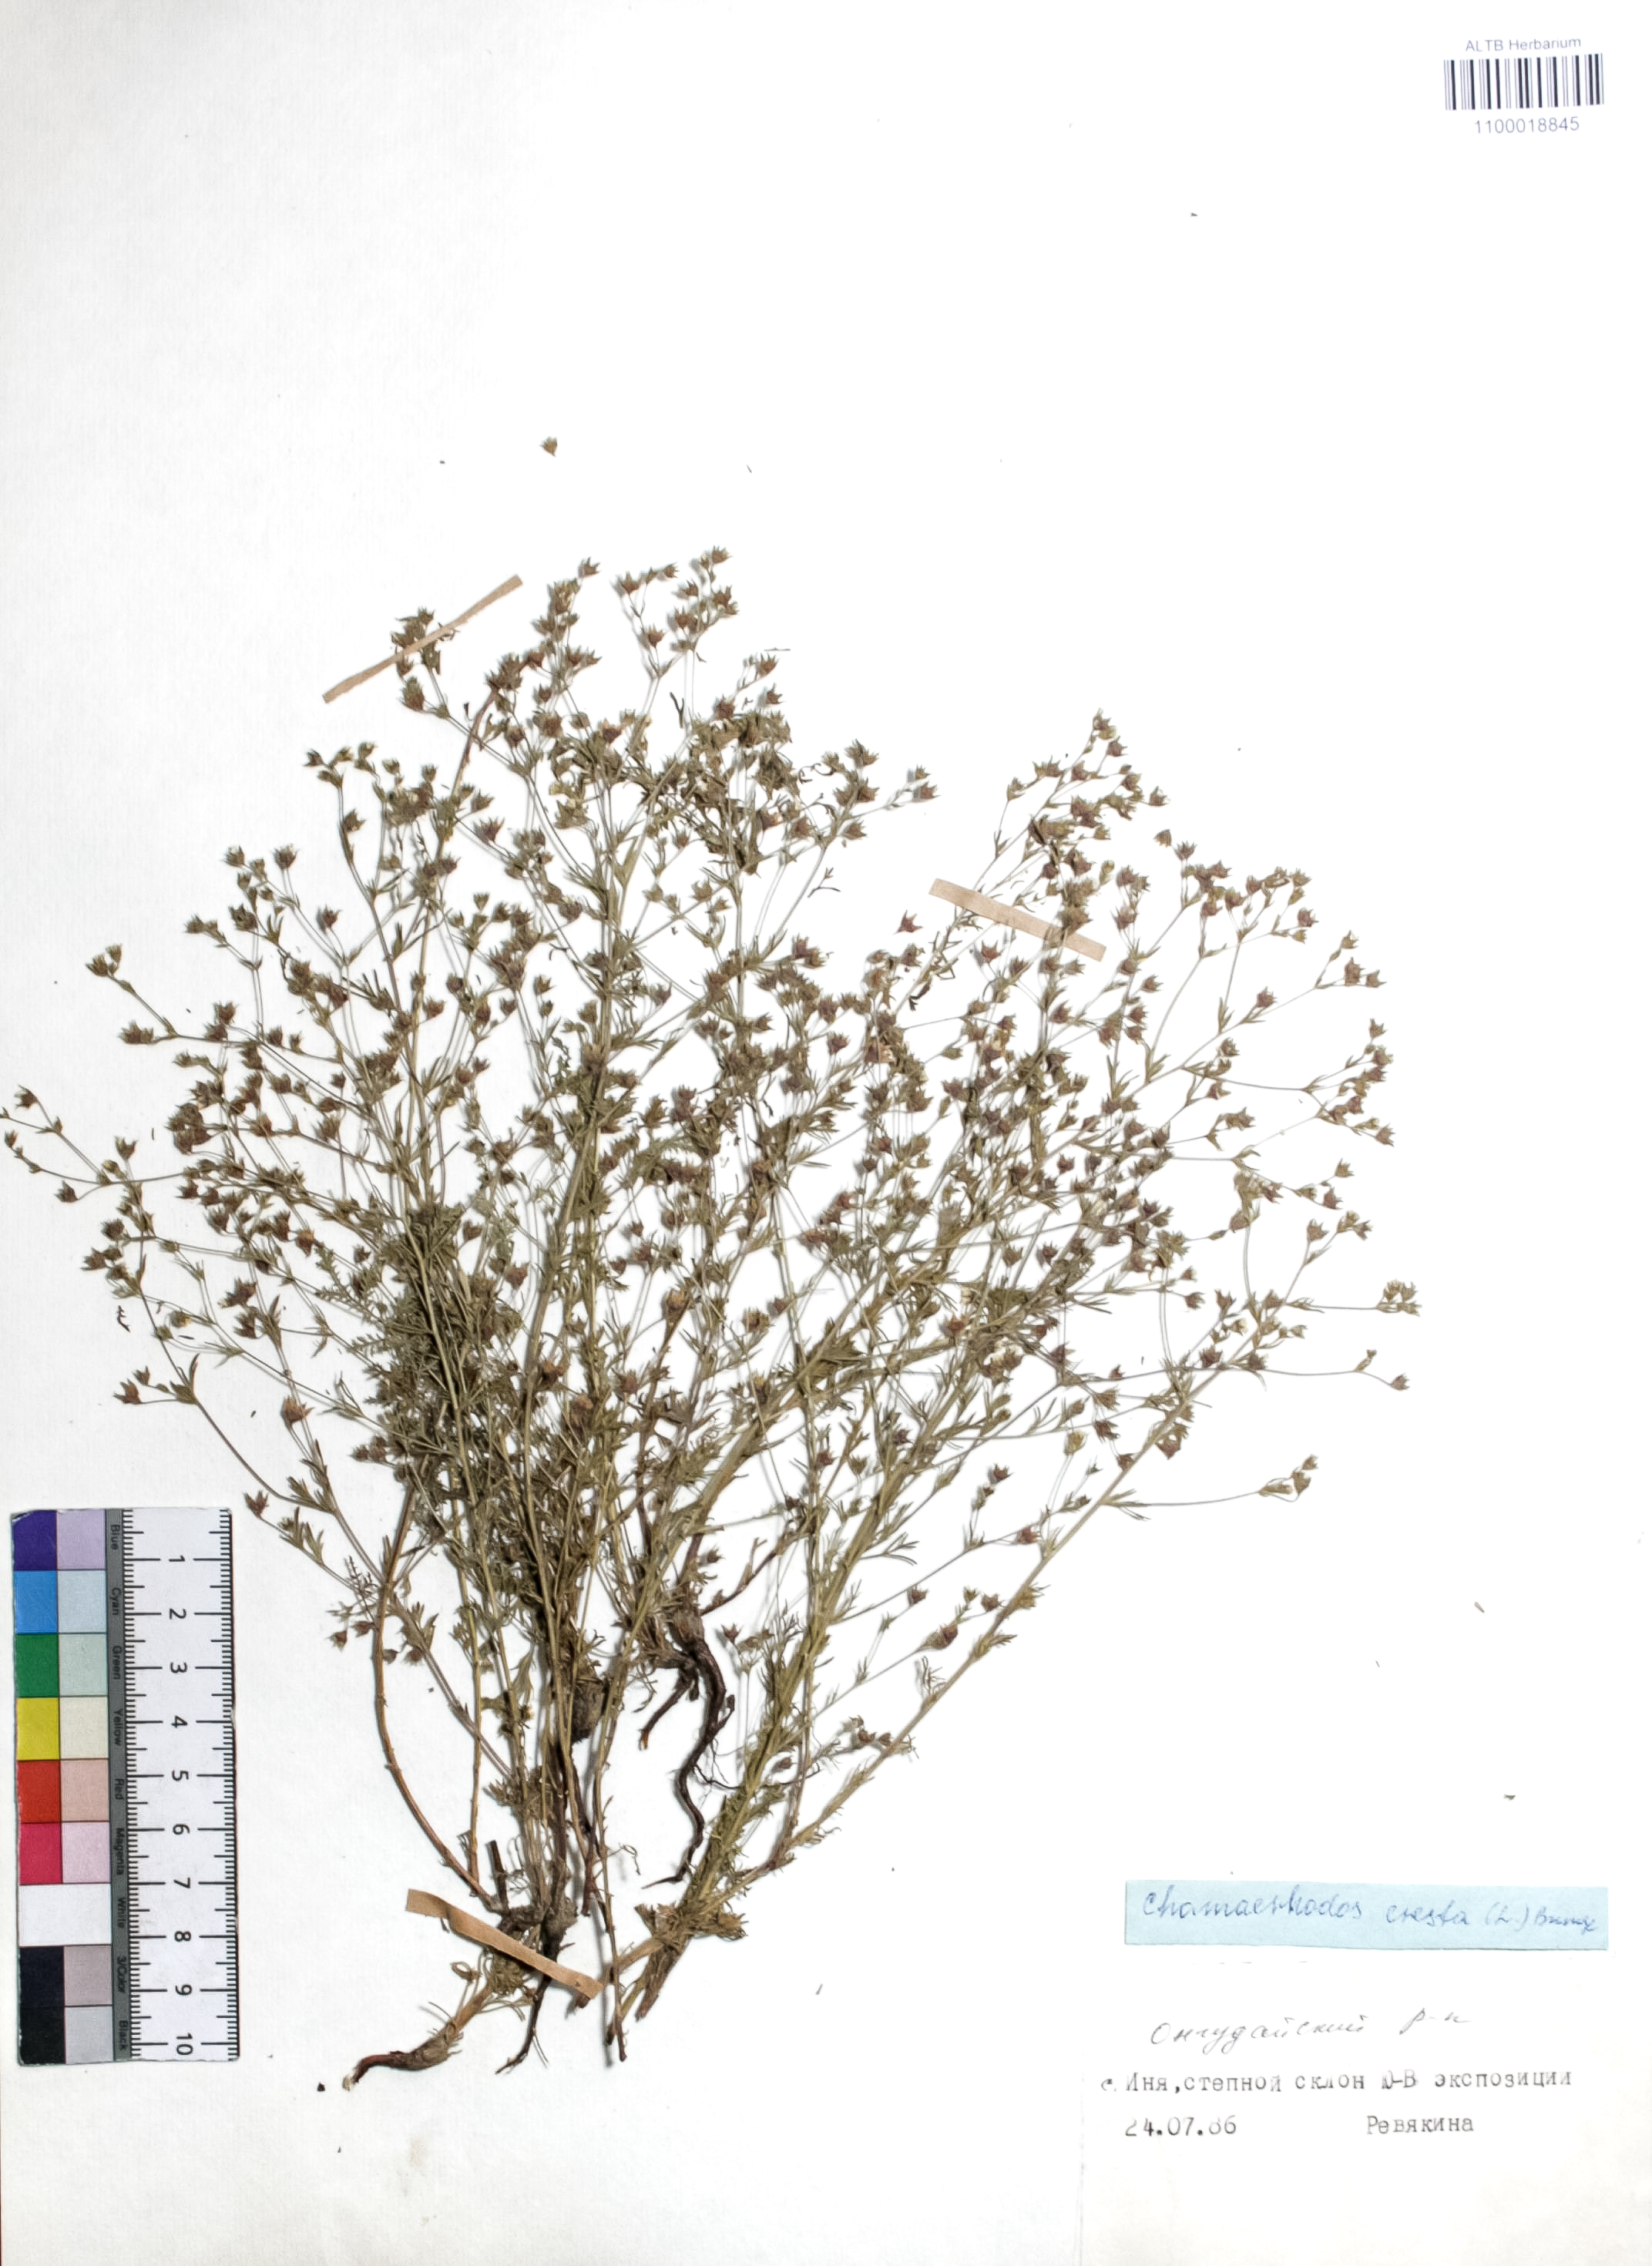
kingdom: Plantae
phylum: Tracheophyta
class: Magnoliopsida
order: Rosales
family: Rosaceae
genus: Chamaerhodos
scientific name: Chamaerhodos erecta
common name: American chamaerhodos
